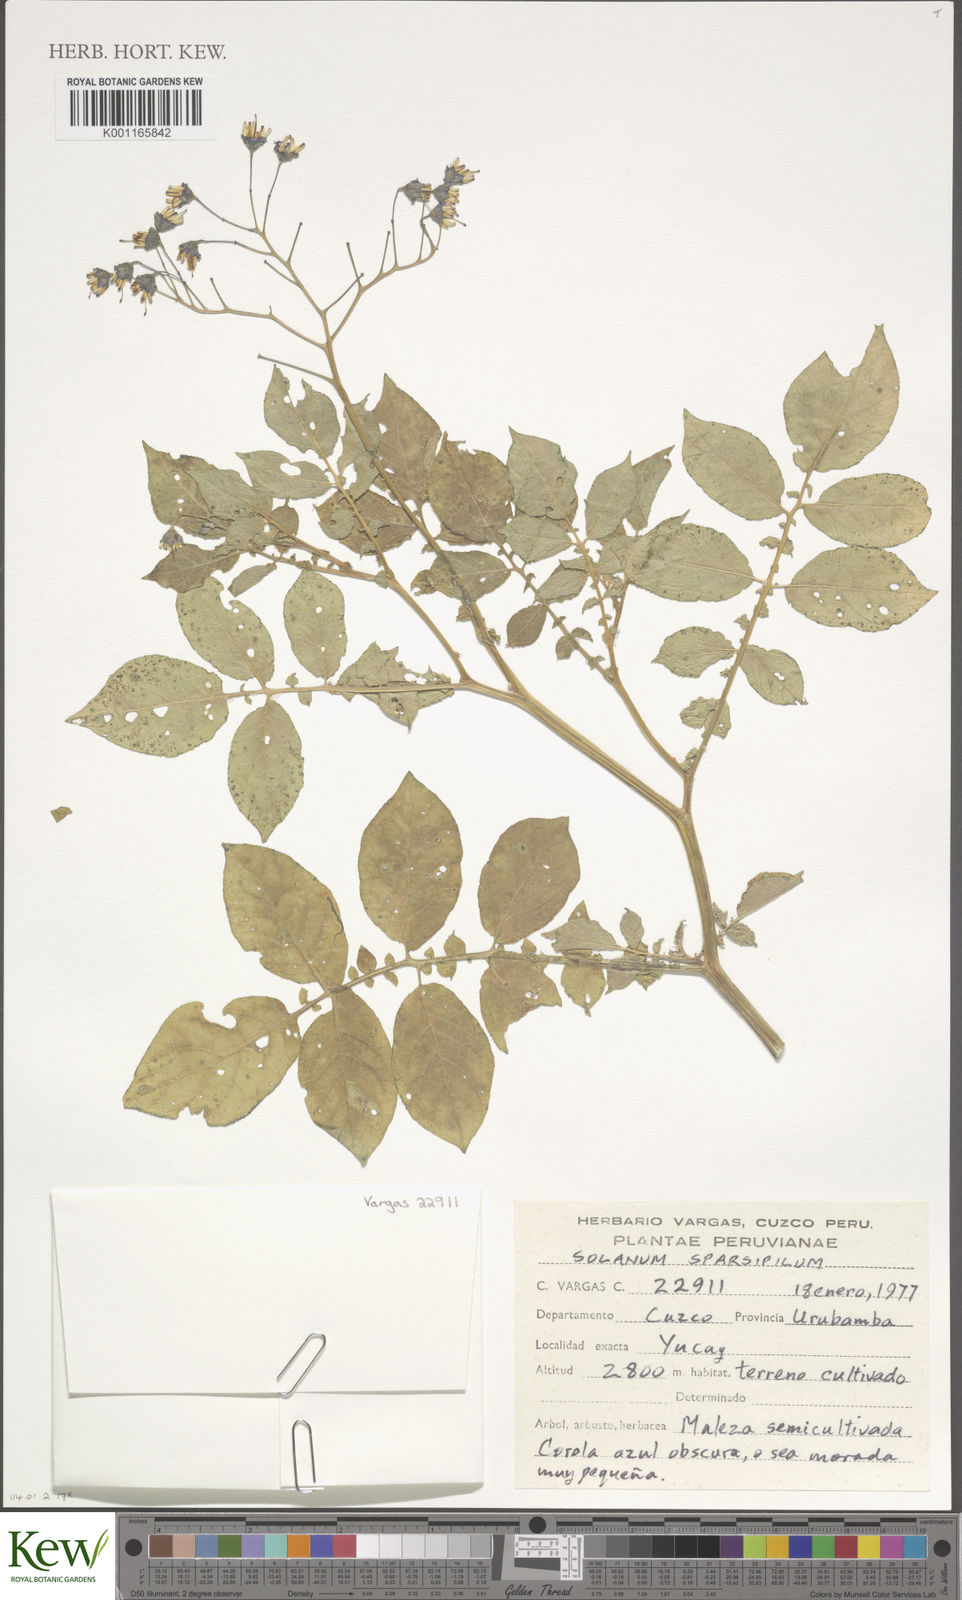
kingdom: Plantae
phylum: Tracheophyta
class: Magnoliopsida
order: Solanales
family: Solanaceae
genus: Solanum
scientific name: Solanum brevicaule
